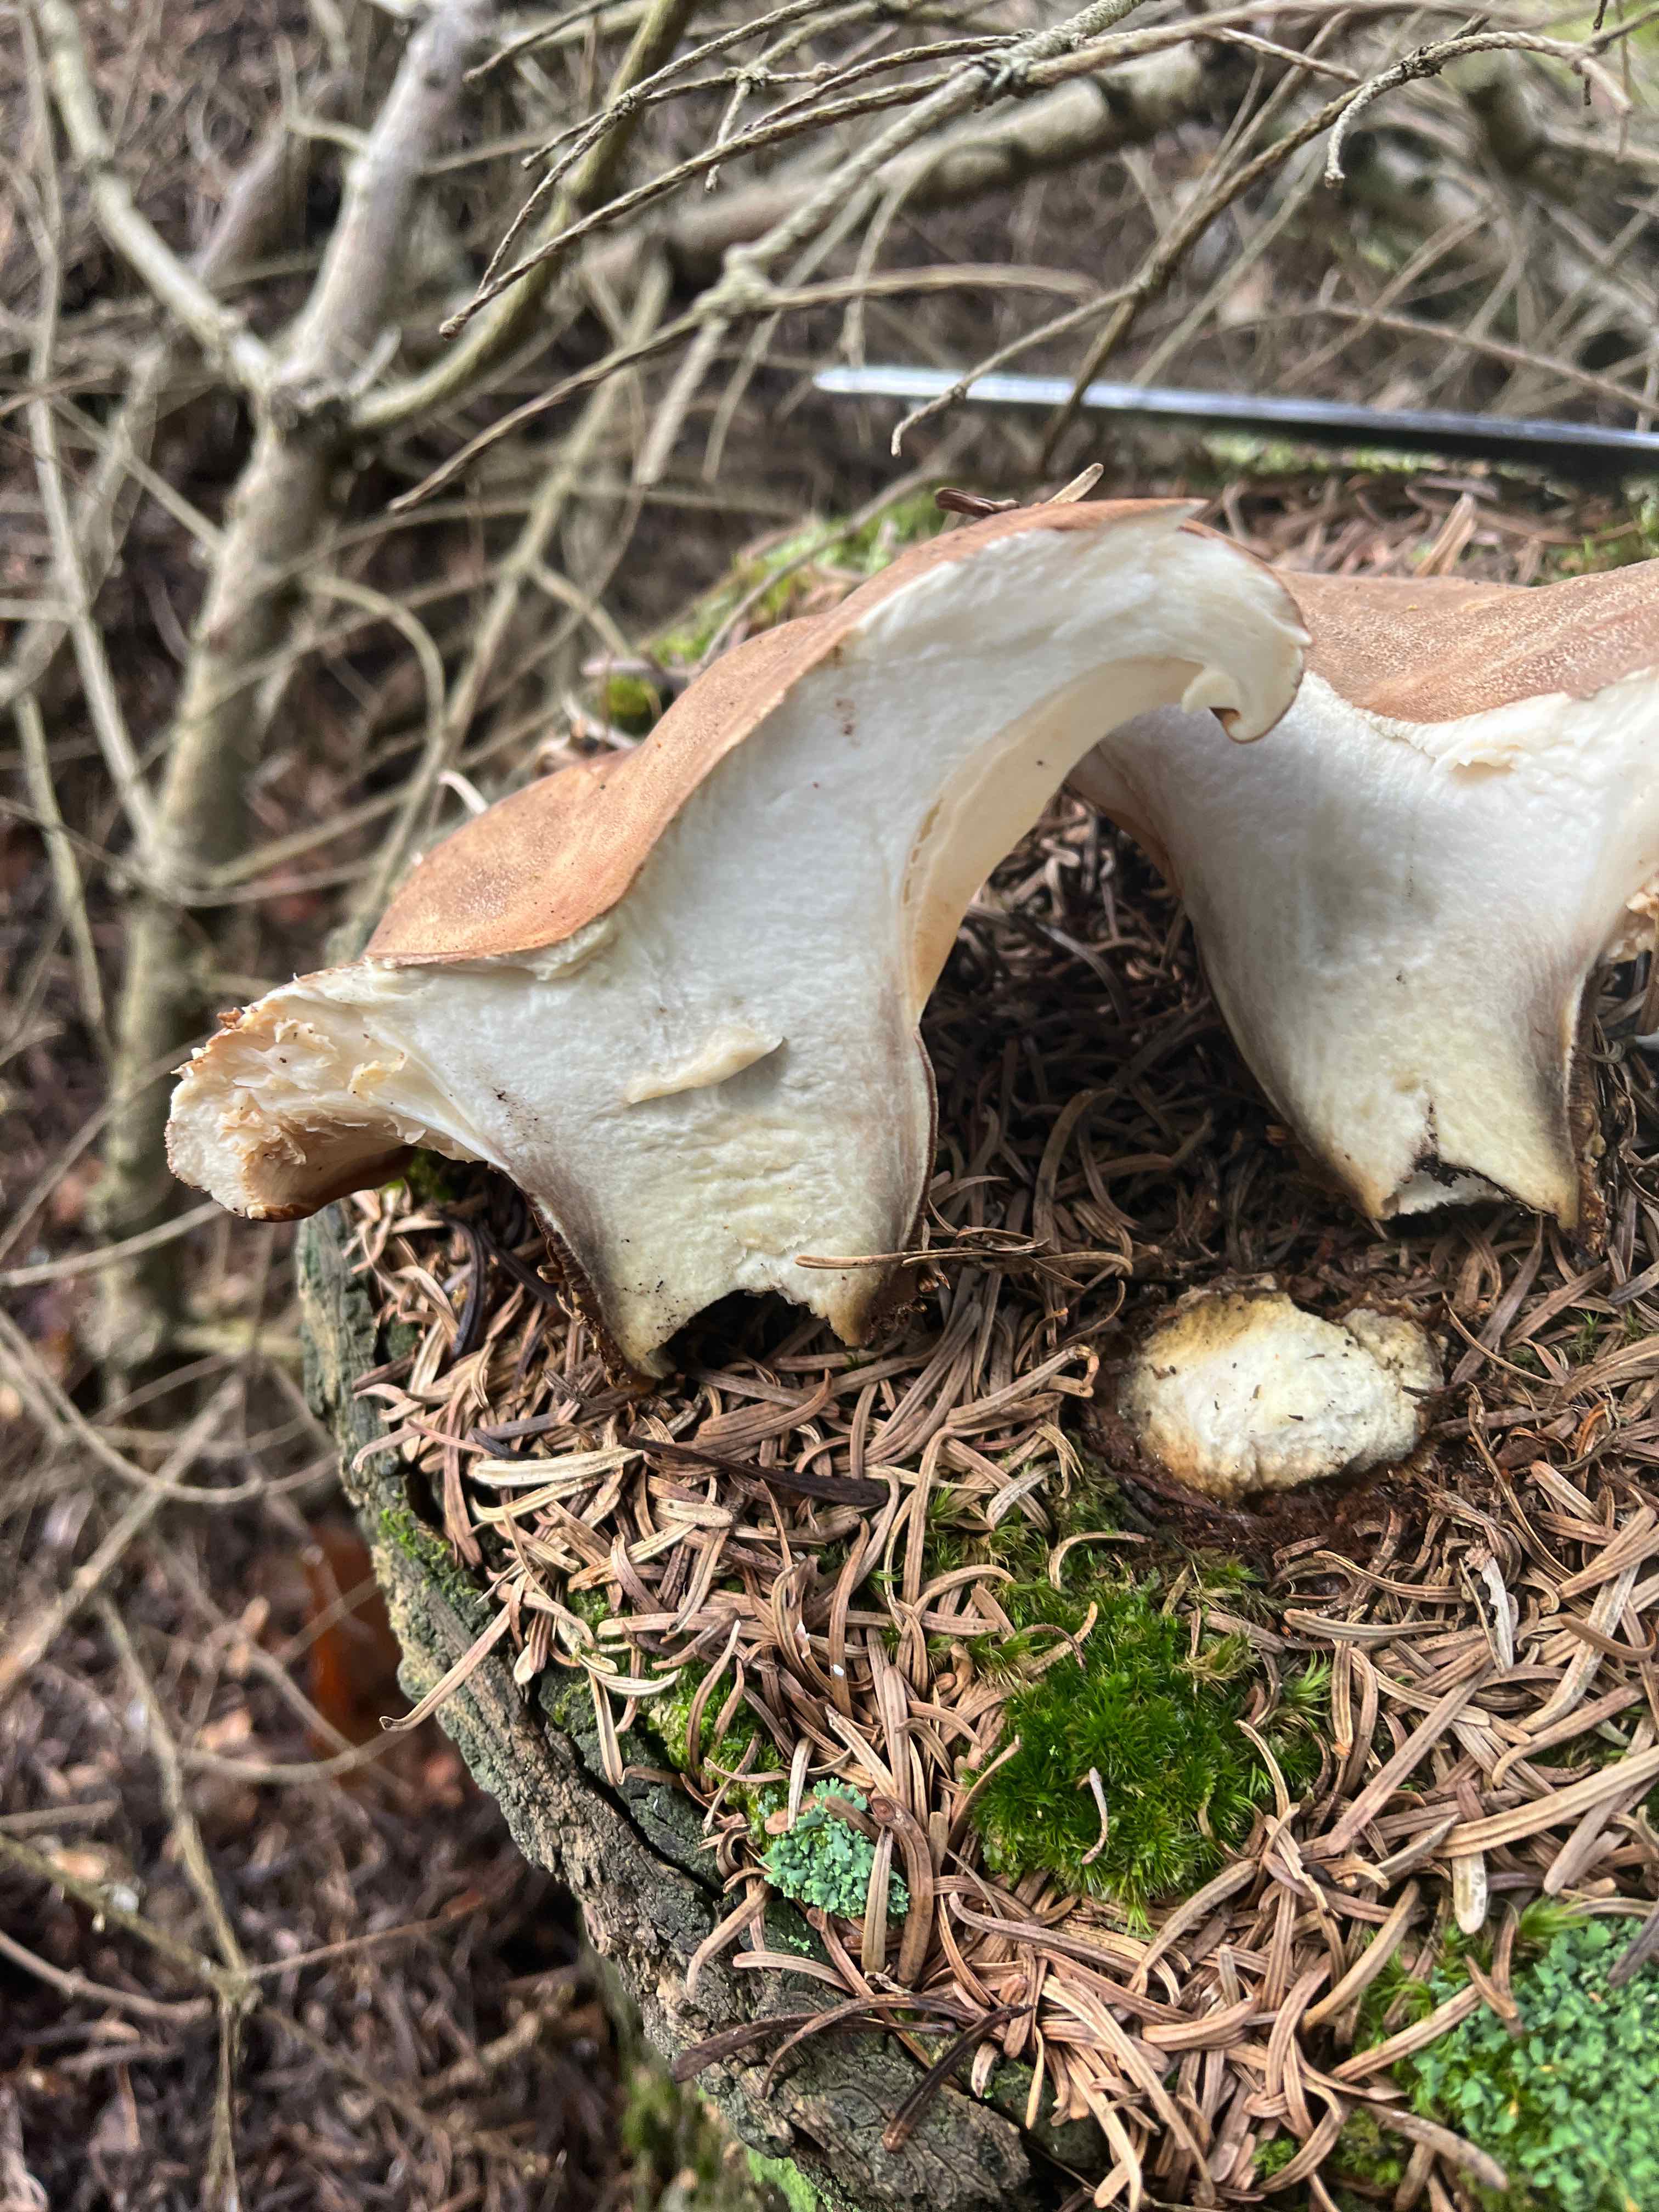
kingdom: Fungi
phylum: Basidiomycota
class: Agaricomycetes
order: Boletales
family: Tapinellaceae
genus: Tapinella
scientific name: Tapinella atrotomentosa
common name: sortfiltet viftesvamp
